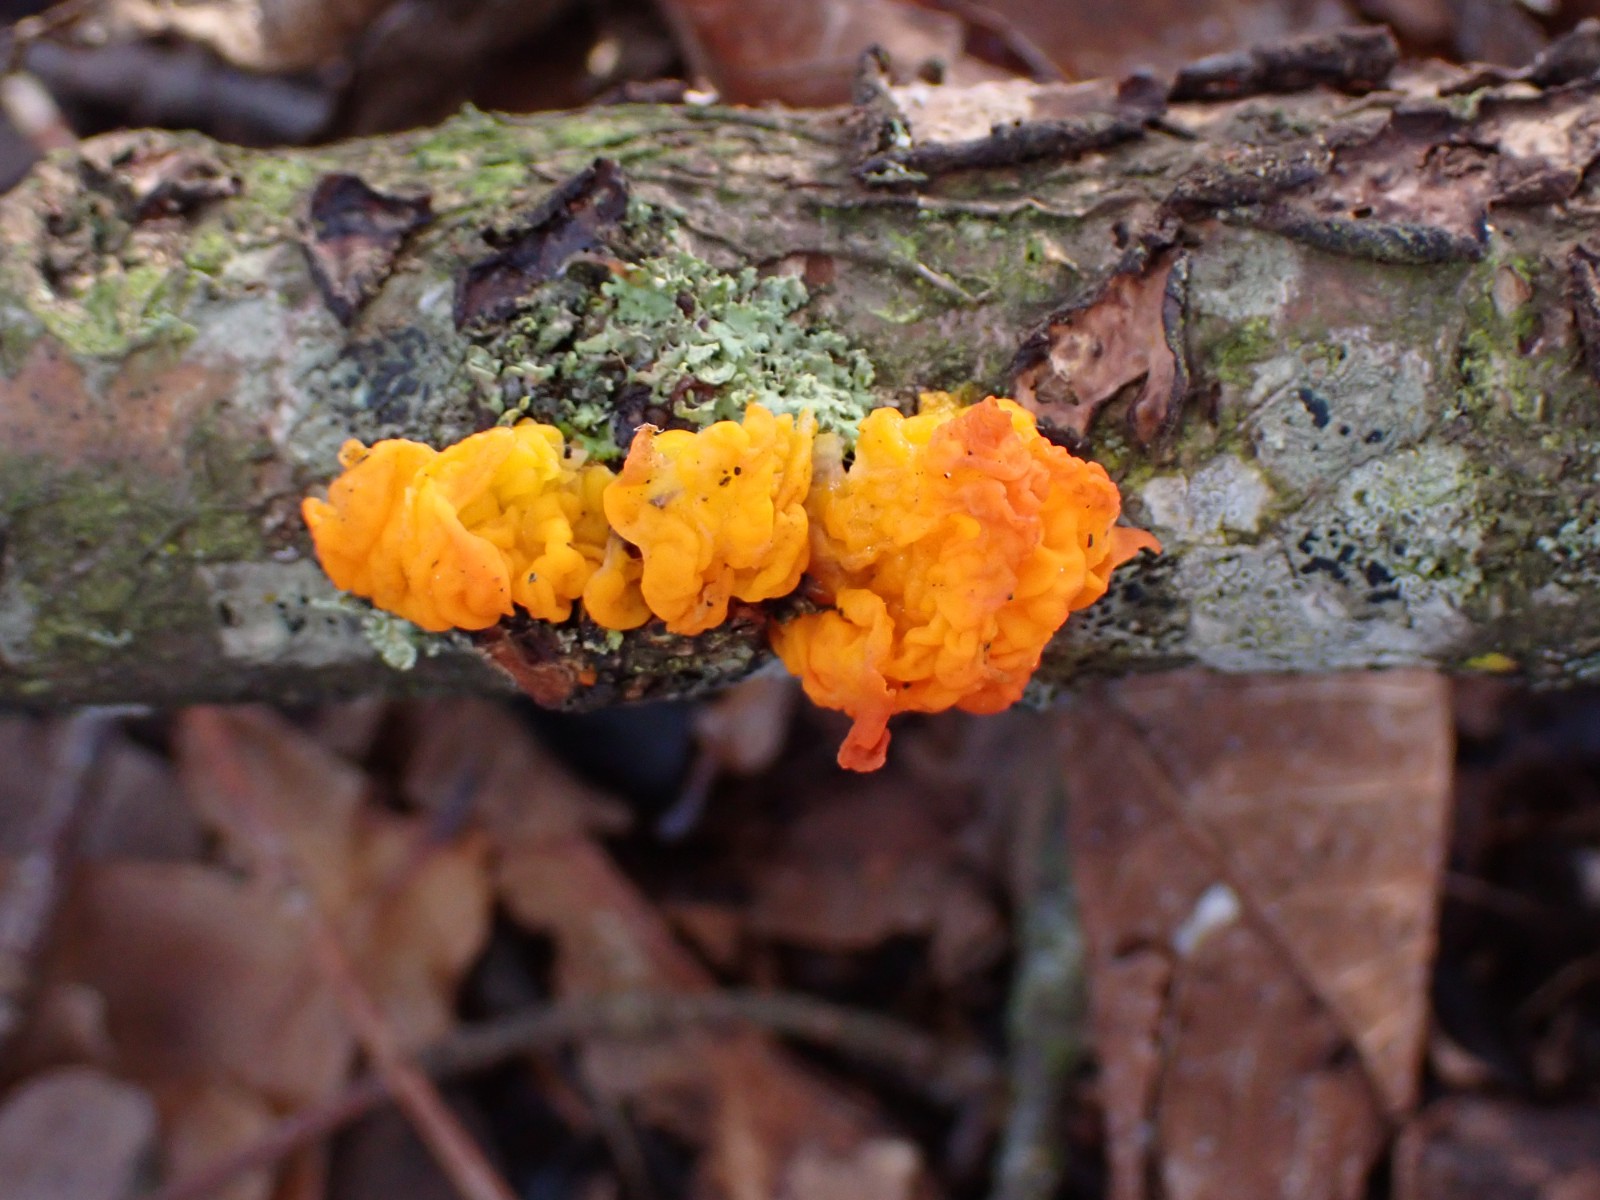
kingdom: Fungi
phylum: Basidiomycota
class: Tremellomycetes
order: Tremellales
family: Tremellaceae
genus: Tremella
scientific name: Tremella mesenterica
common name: gul bævresvamp
